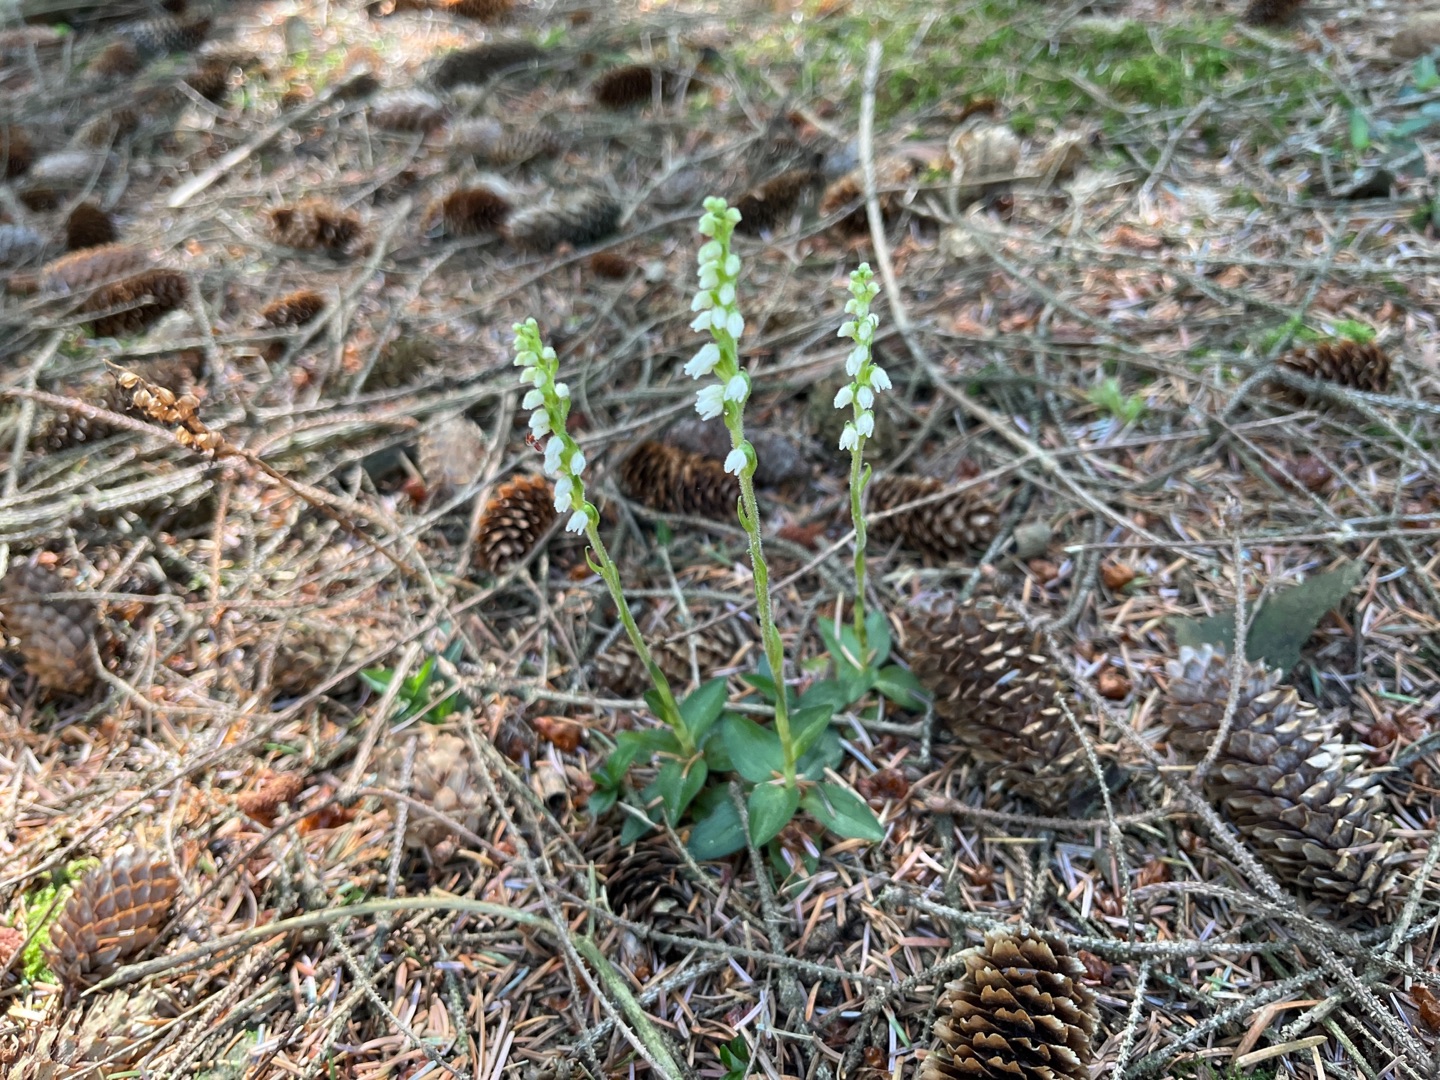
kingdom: Plantae
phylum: Tracheophyta
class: Liliopsida
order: Asparagales
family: Orchidaceae
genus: Goodyera
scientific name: Goodyera repens
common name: Knærod
